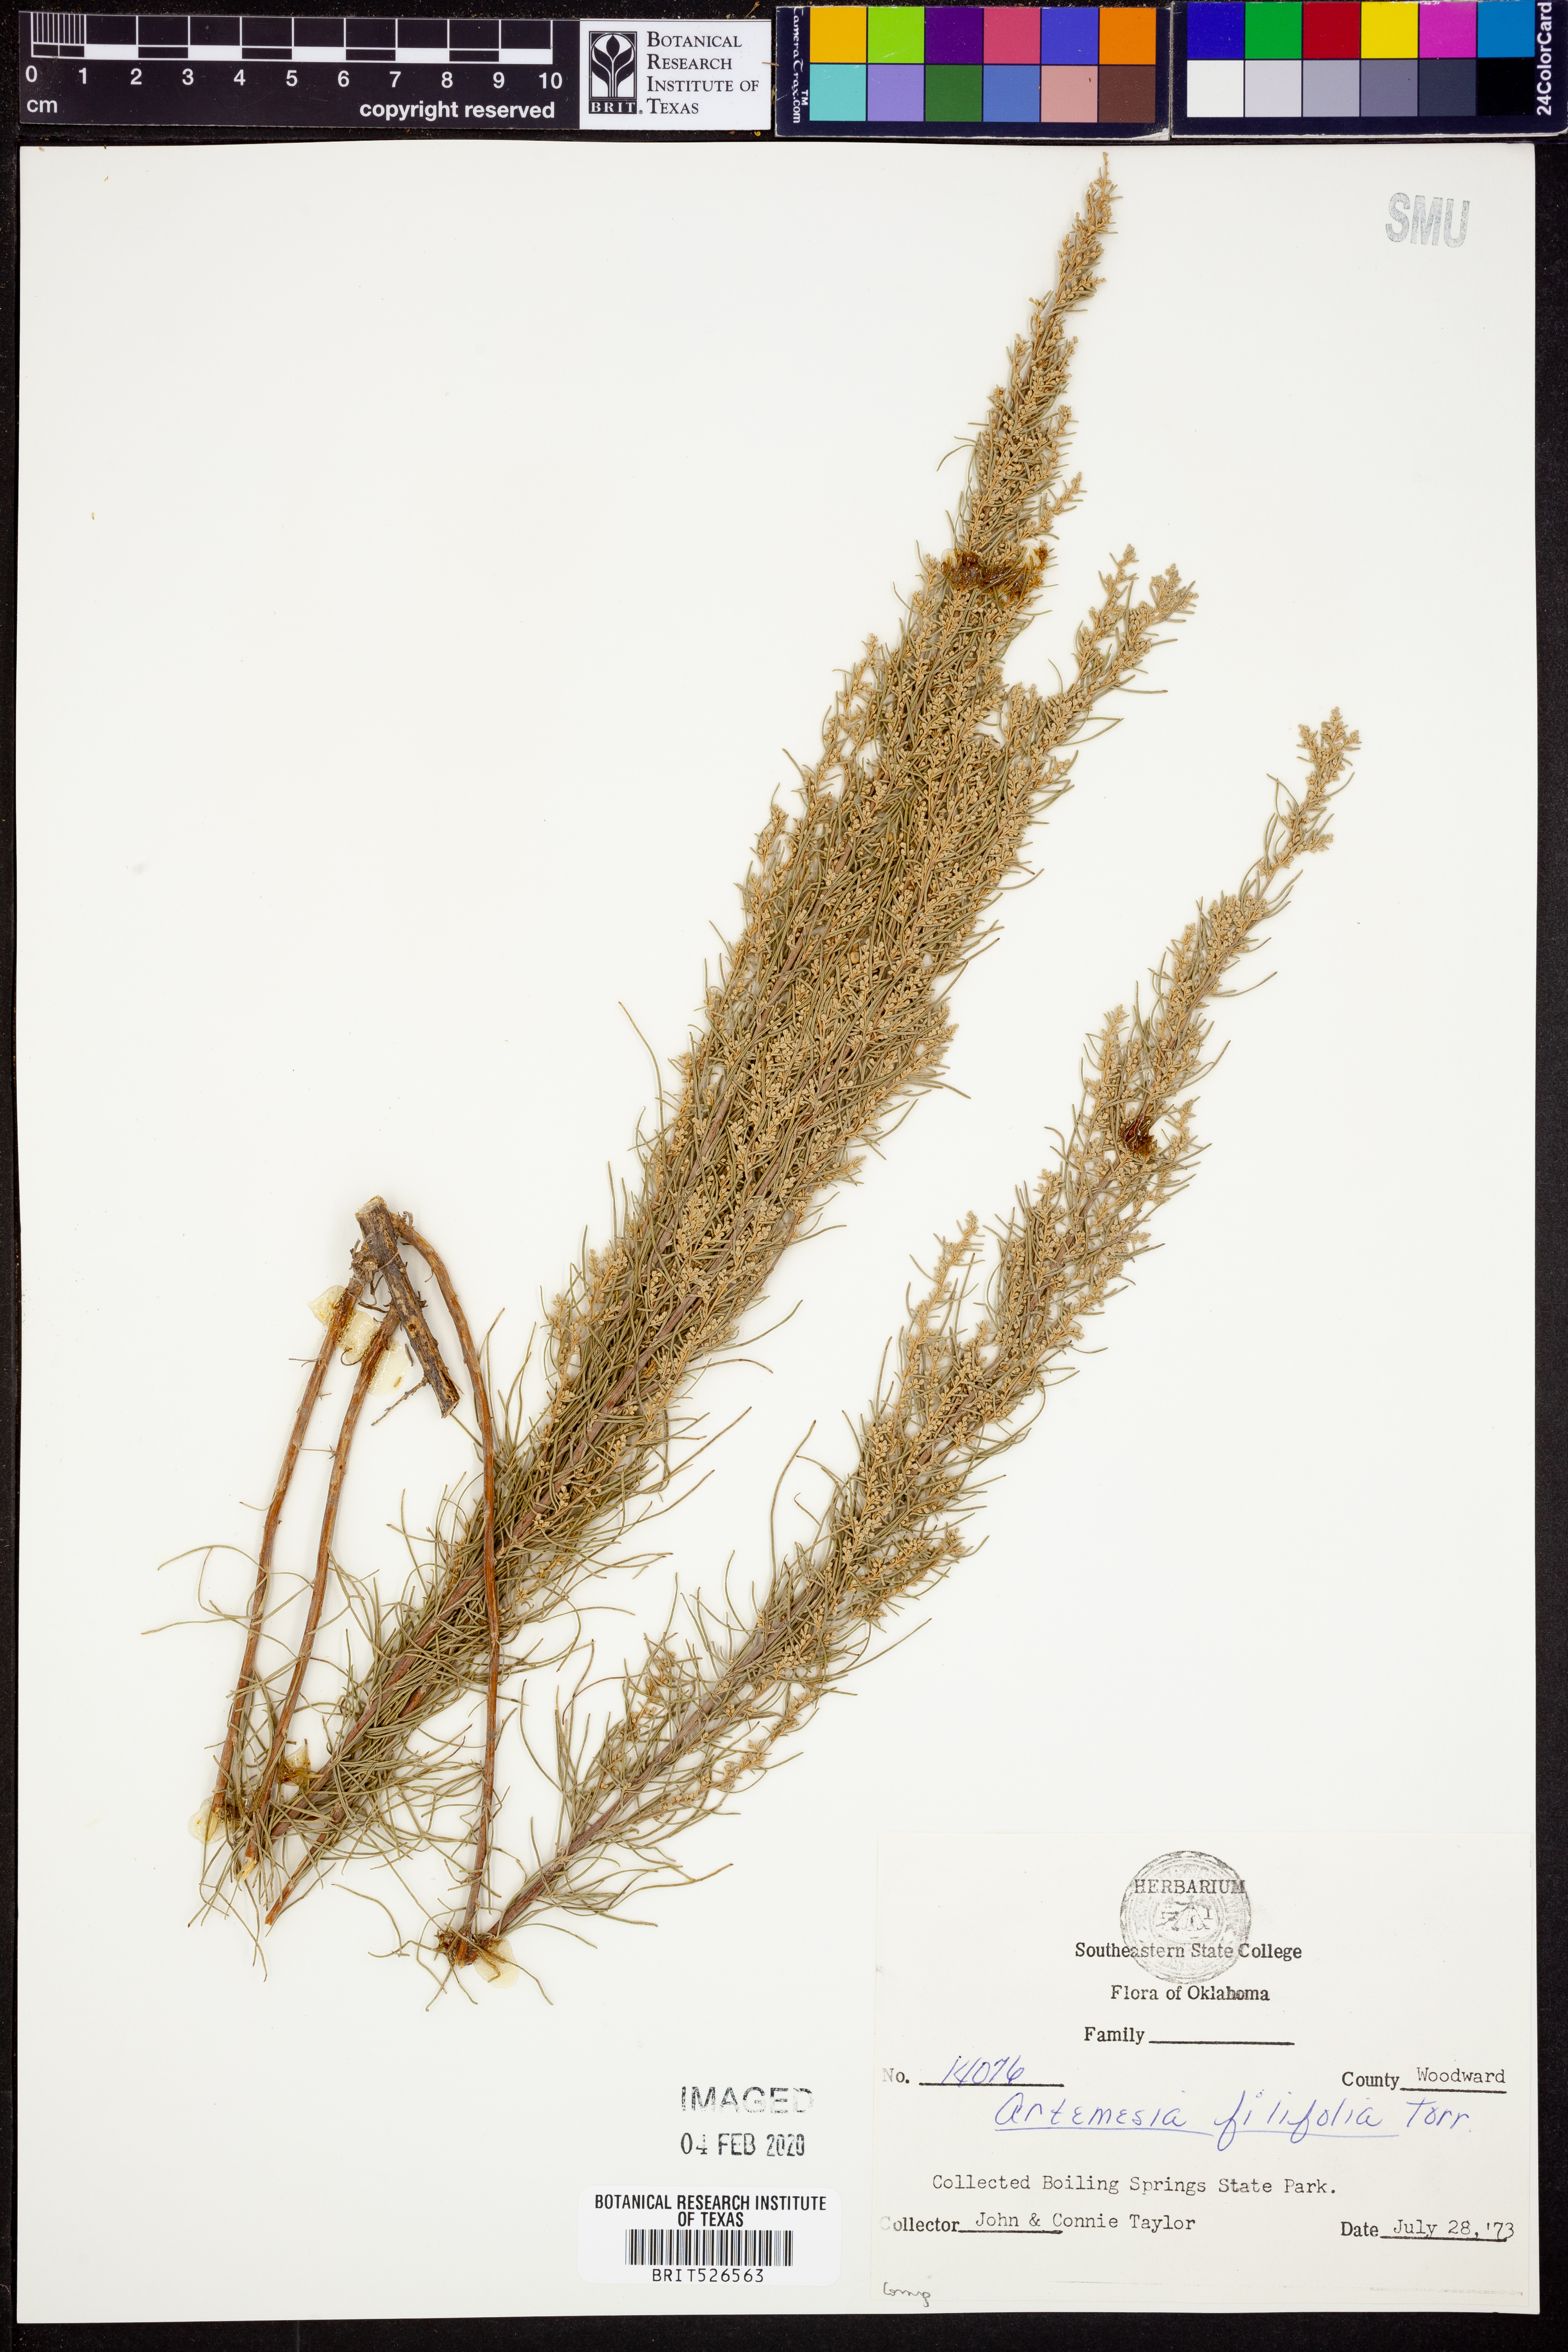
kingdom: Plantae
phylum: Tracheophyta
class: Magnoliopsida
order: Asterales
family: Asteraceae
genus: Artemisia
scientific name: Artemisia filifolia
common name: Sand-sage
